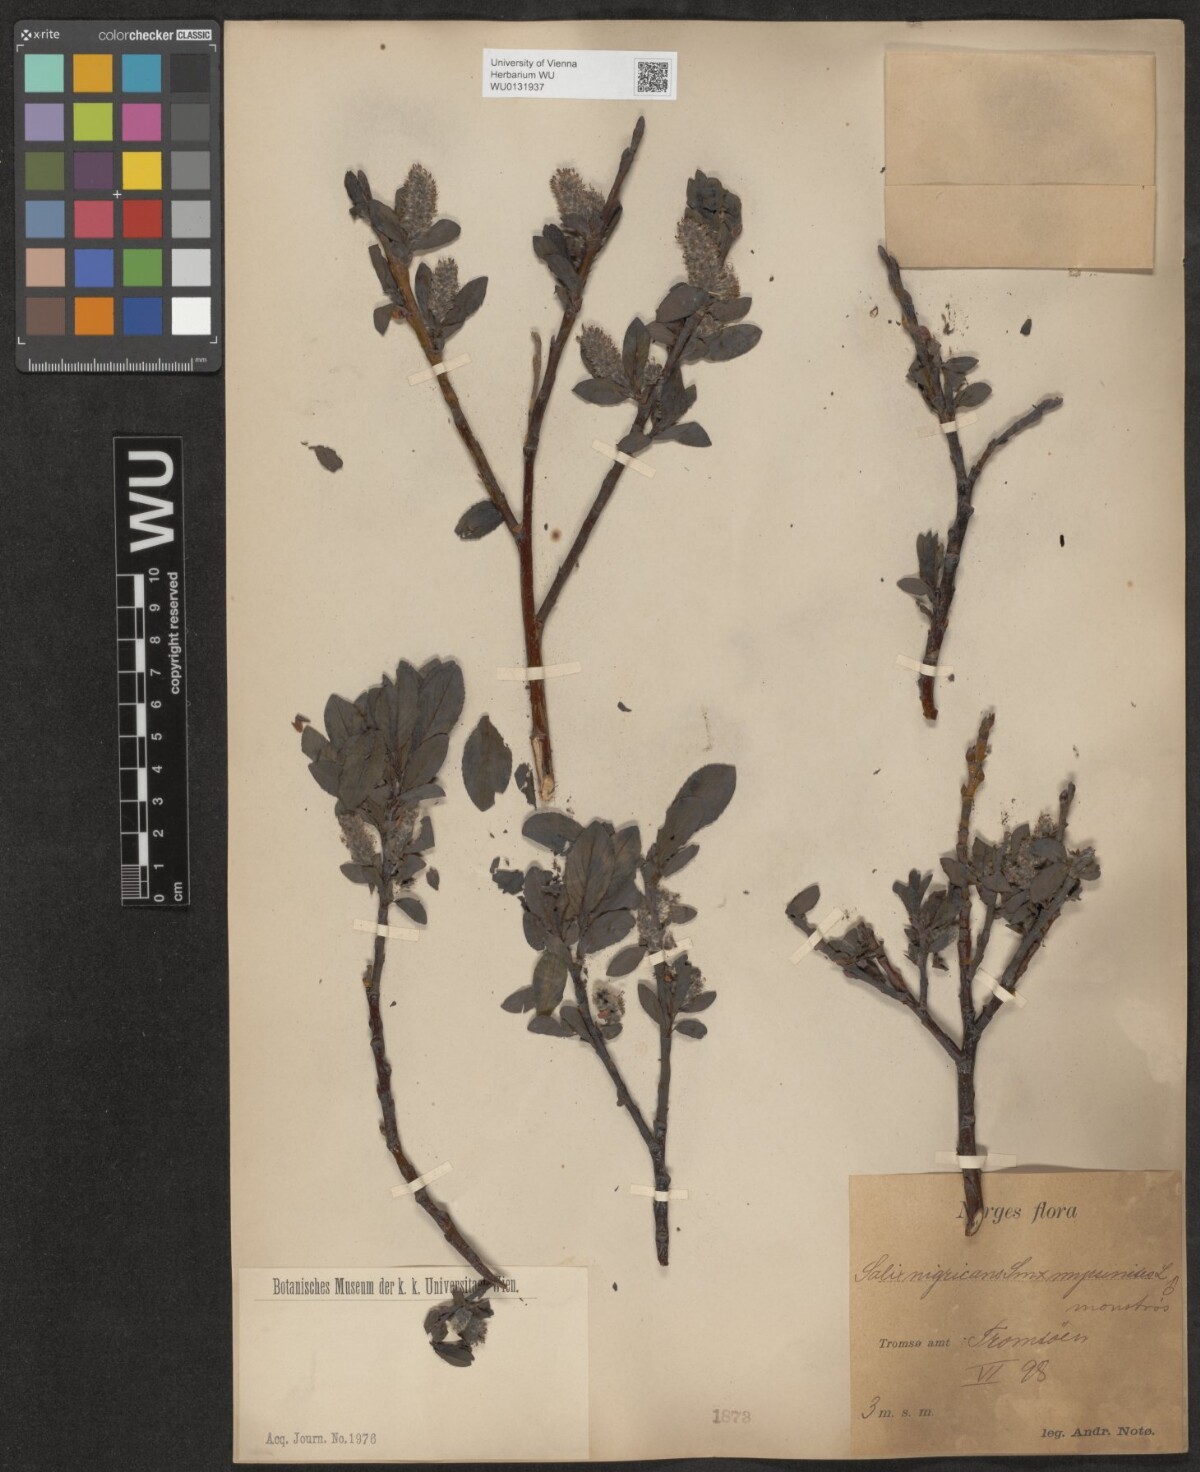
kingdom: Plantae
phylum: Tracheophyta
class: Magnoliopsida
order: Malpighiales
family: Salicaceae
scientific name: Salicaceae
